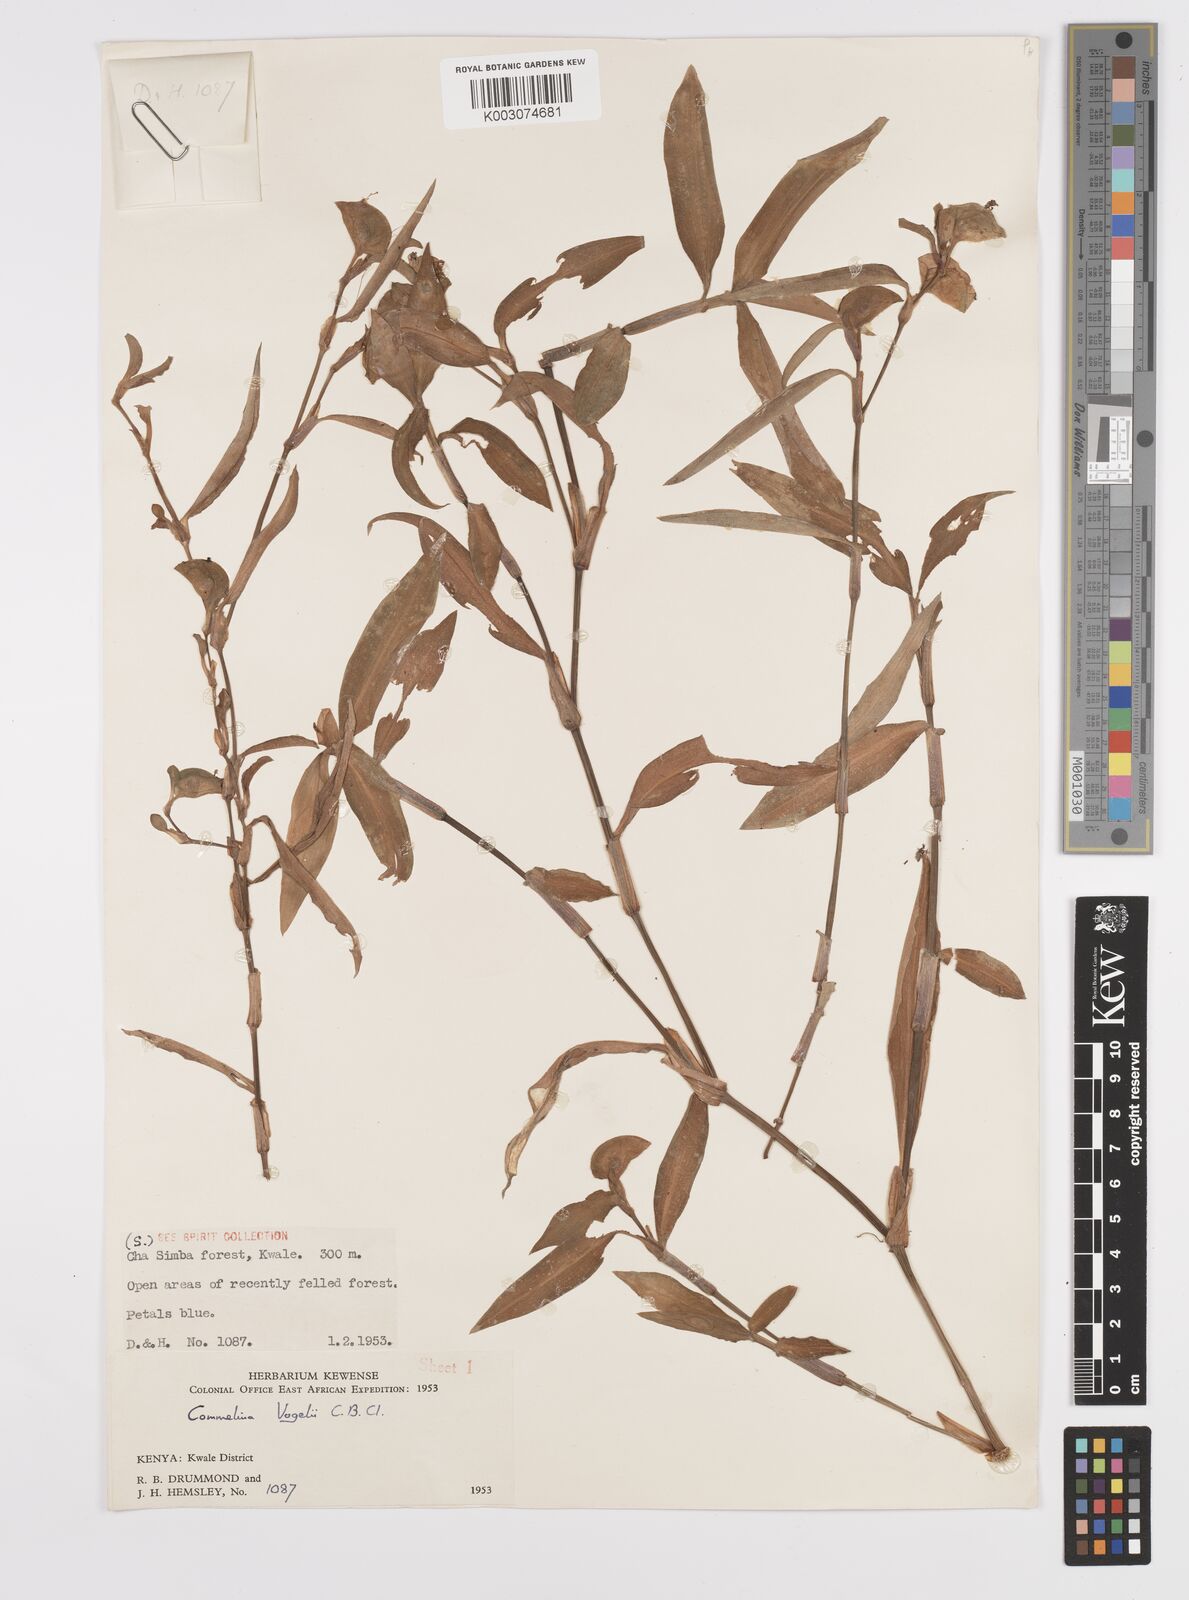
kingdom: Plantae
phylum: Tracheophyta
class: Liliopsida
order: Commelinales
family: Commelinaceae
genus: Commelina
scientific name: Commelina bracteosa
